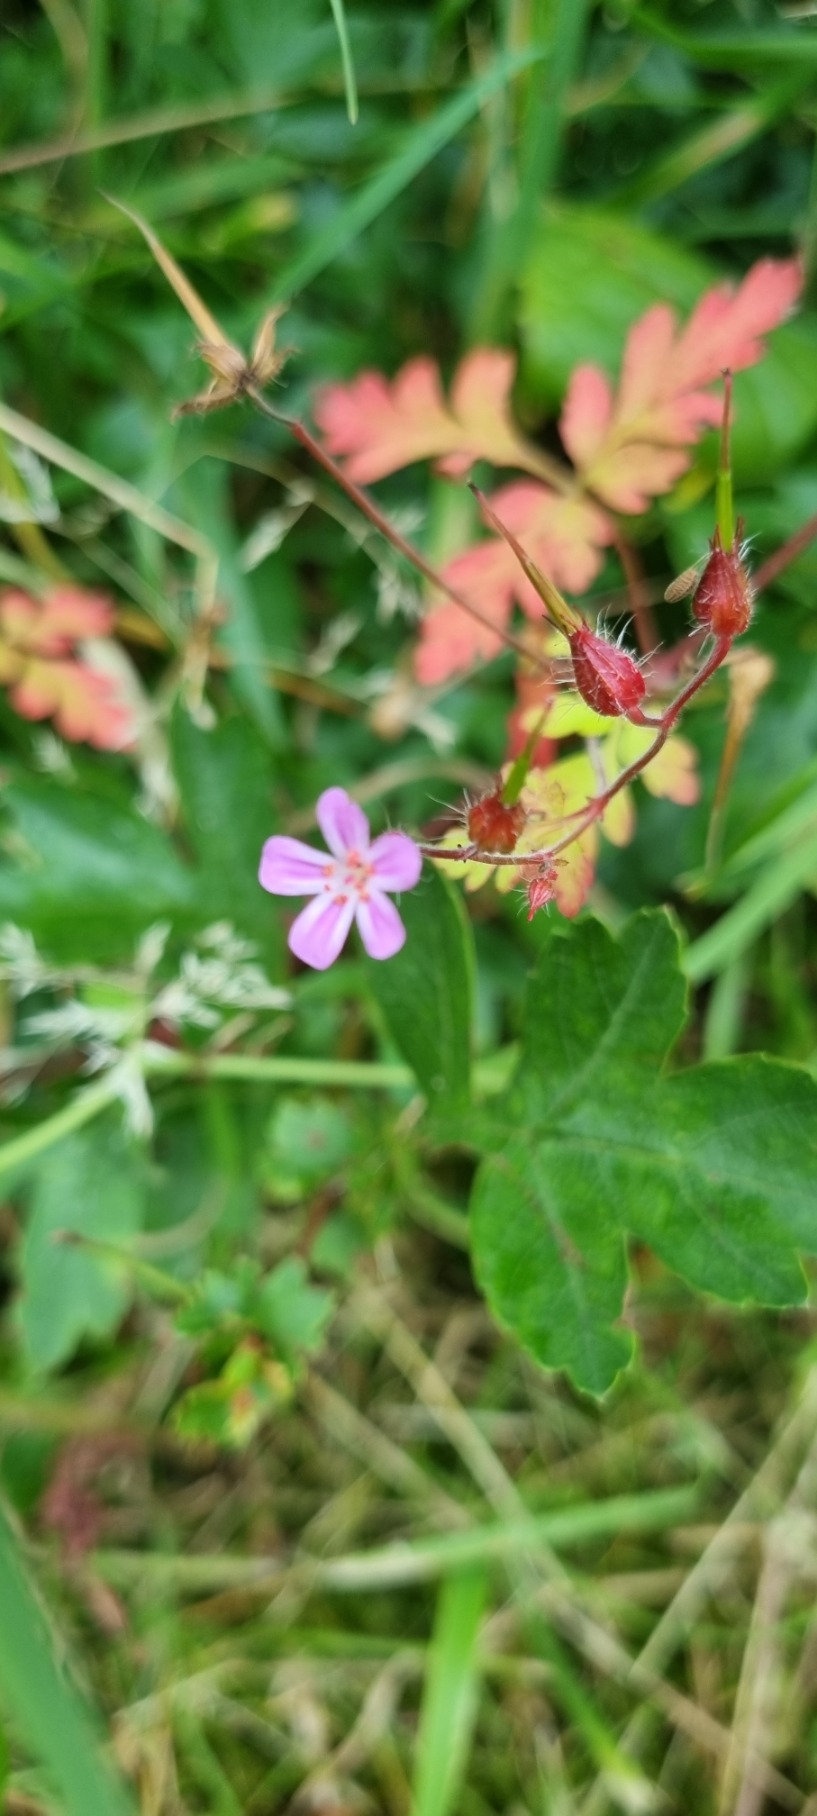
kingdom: Plantae
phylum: Tracheophyta
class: Magnoliopsida
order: Geraniales
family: Geraniaceae
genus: Geranium
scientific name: Geranium robertianum
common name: Stinkende storkenæb
